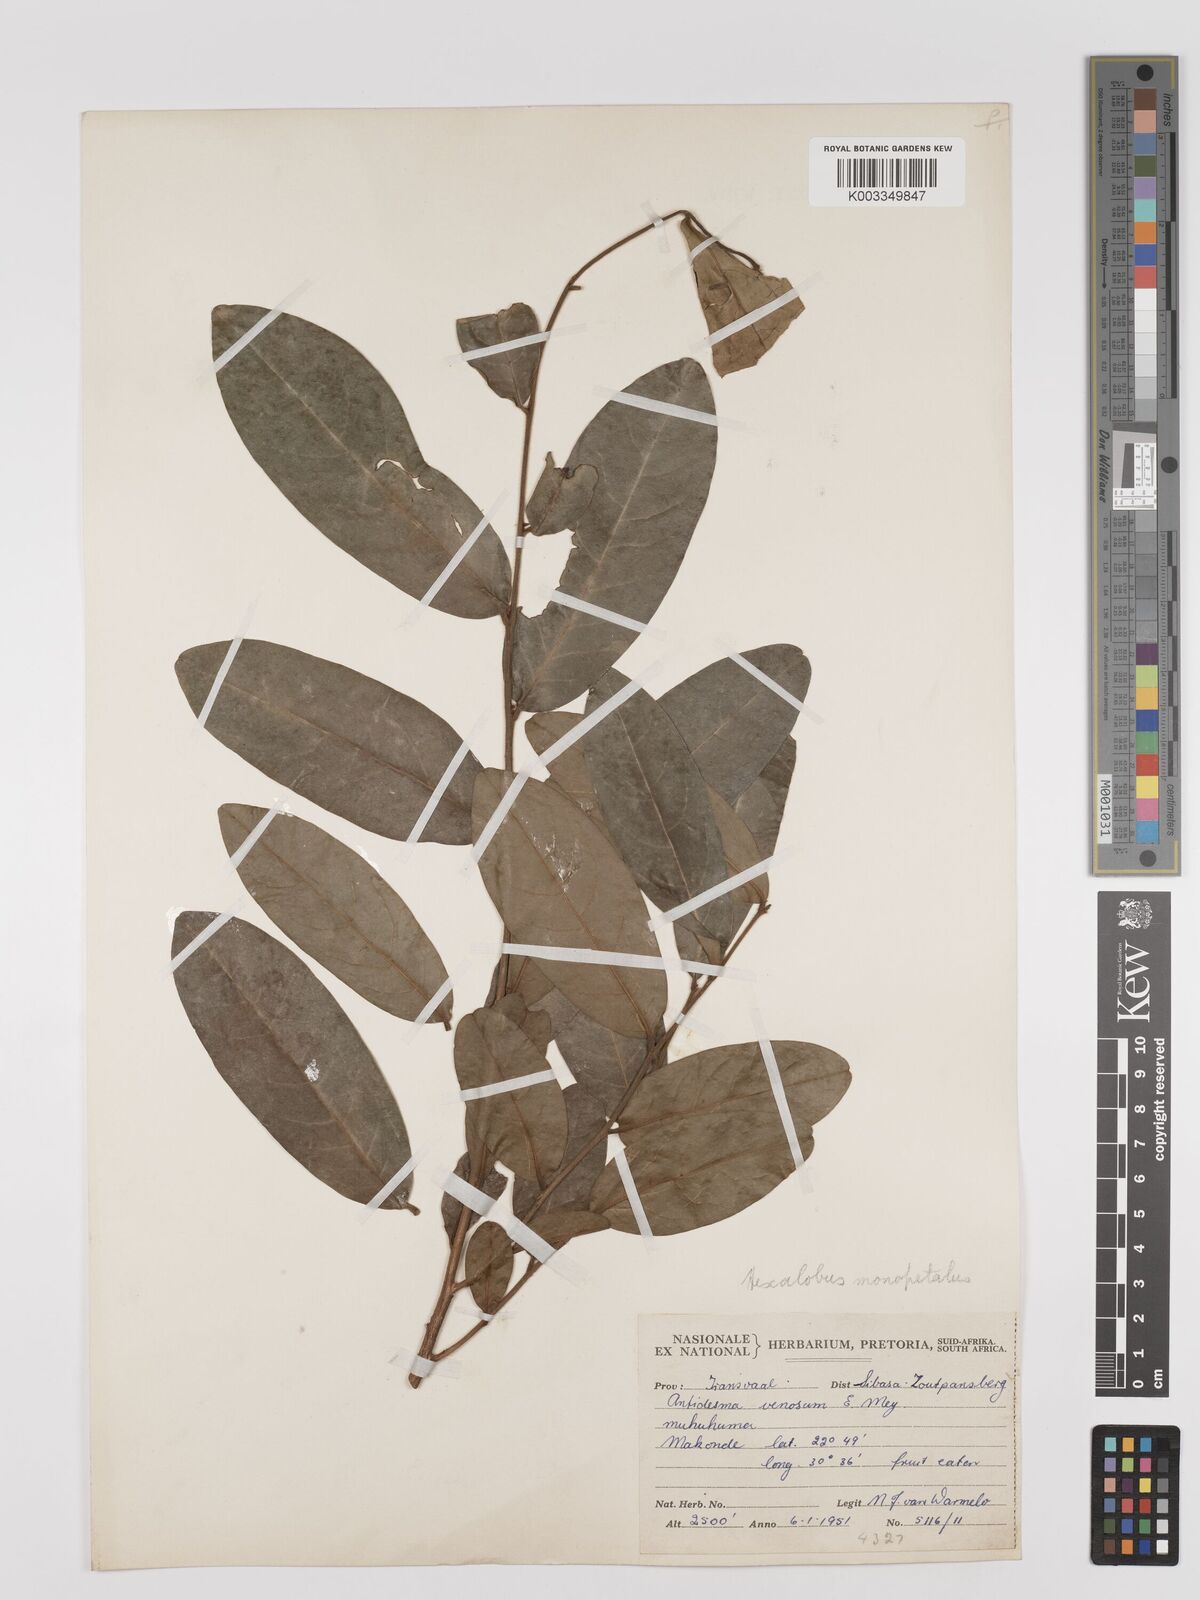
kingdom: Plantae
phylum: Tracheophyta
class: Magnoliopsida
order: Magnoliales
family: Annonaceae
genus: Hexalobus
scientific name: Hexalobus monopetalus
